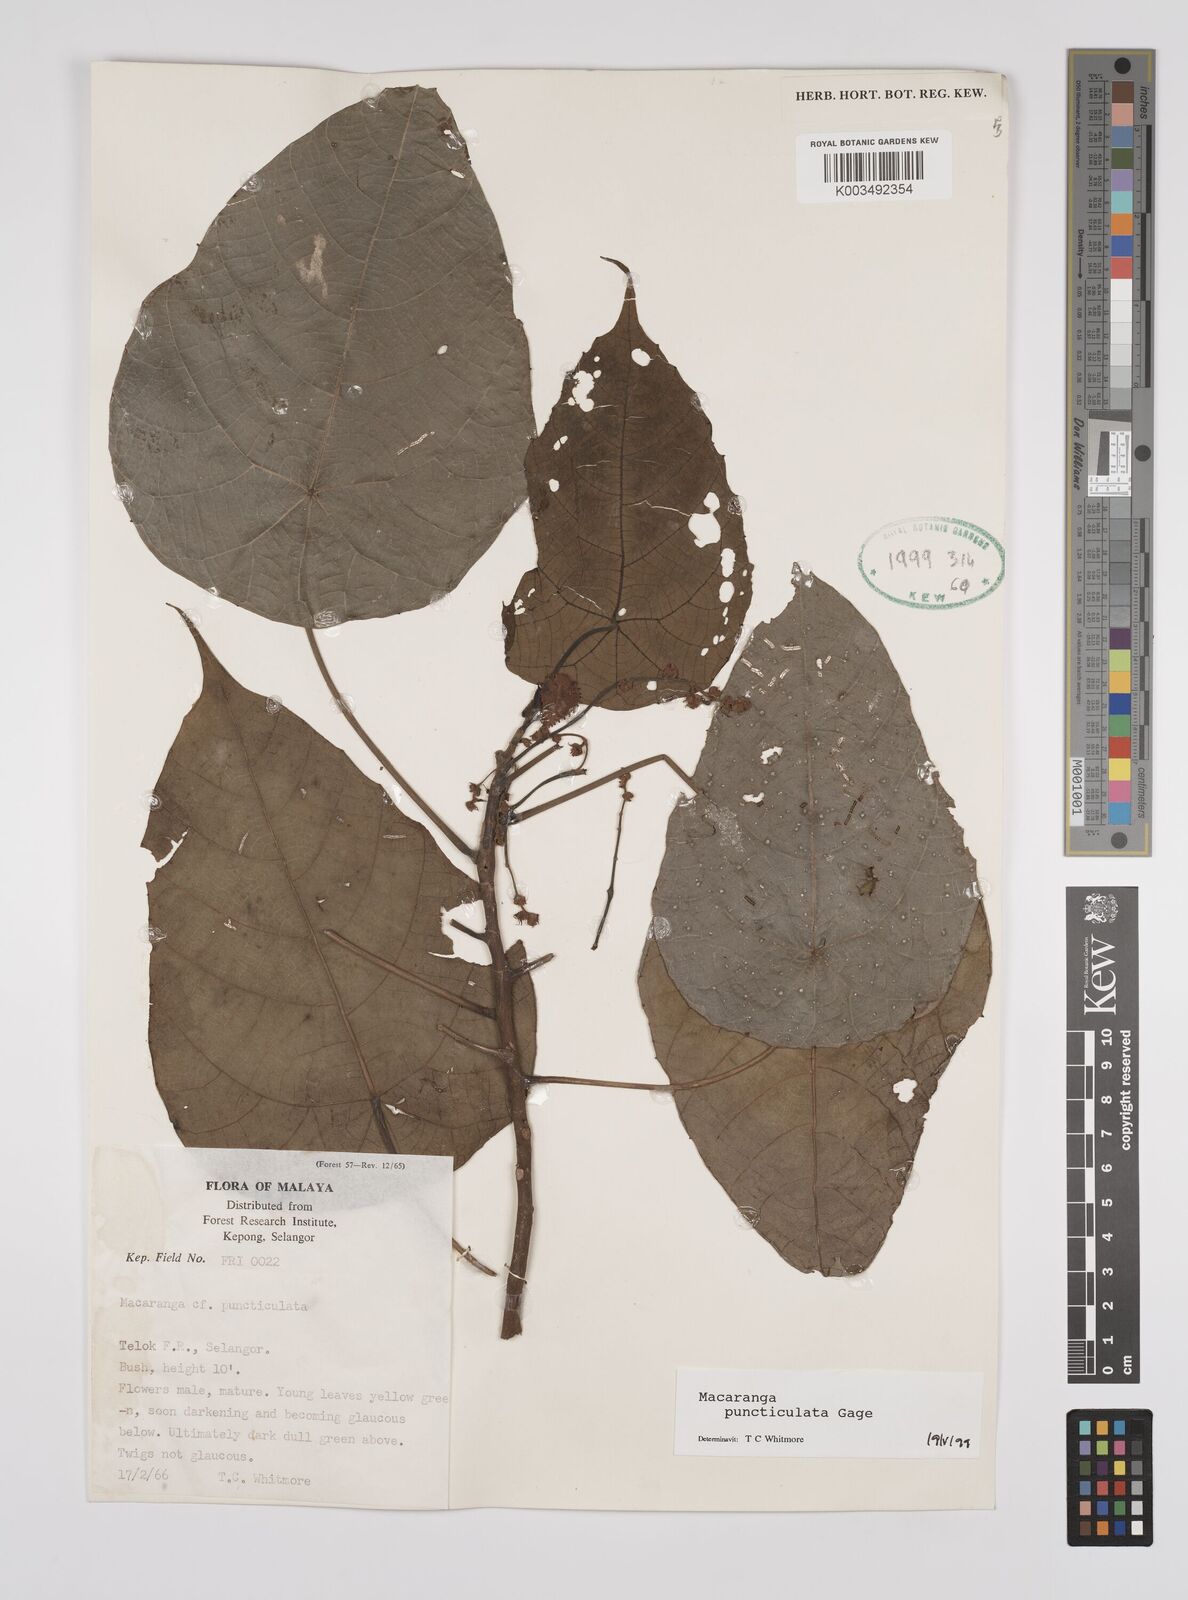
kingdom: Plantae
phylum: Tracheophyta
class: Magnoliopsida
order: Malpighiales
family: Euphorbiaceae
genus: Macaranga
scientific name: Macaranga puncticulata
